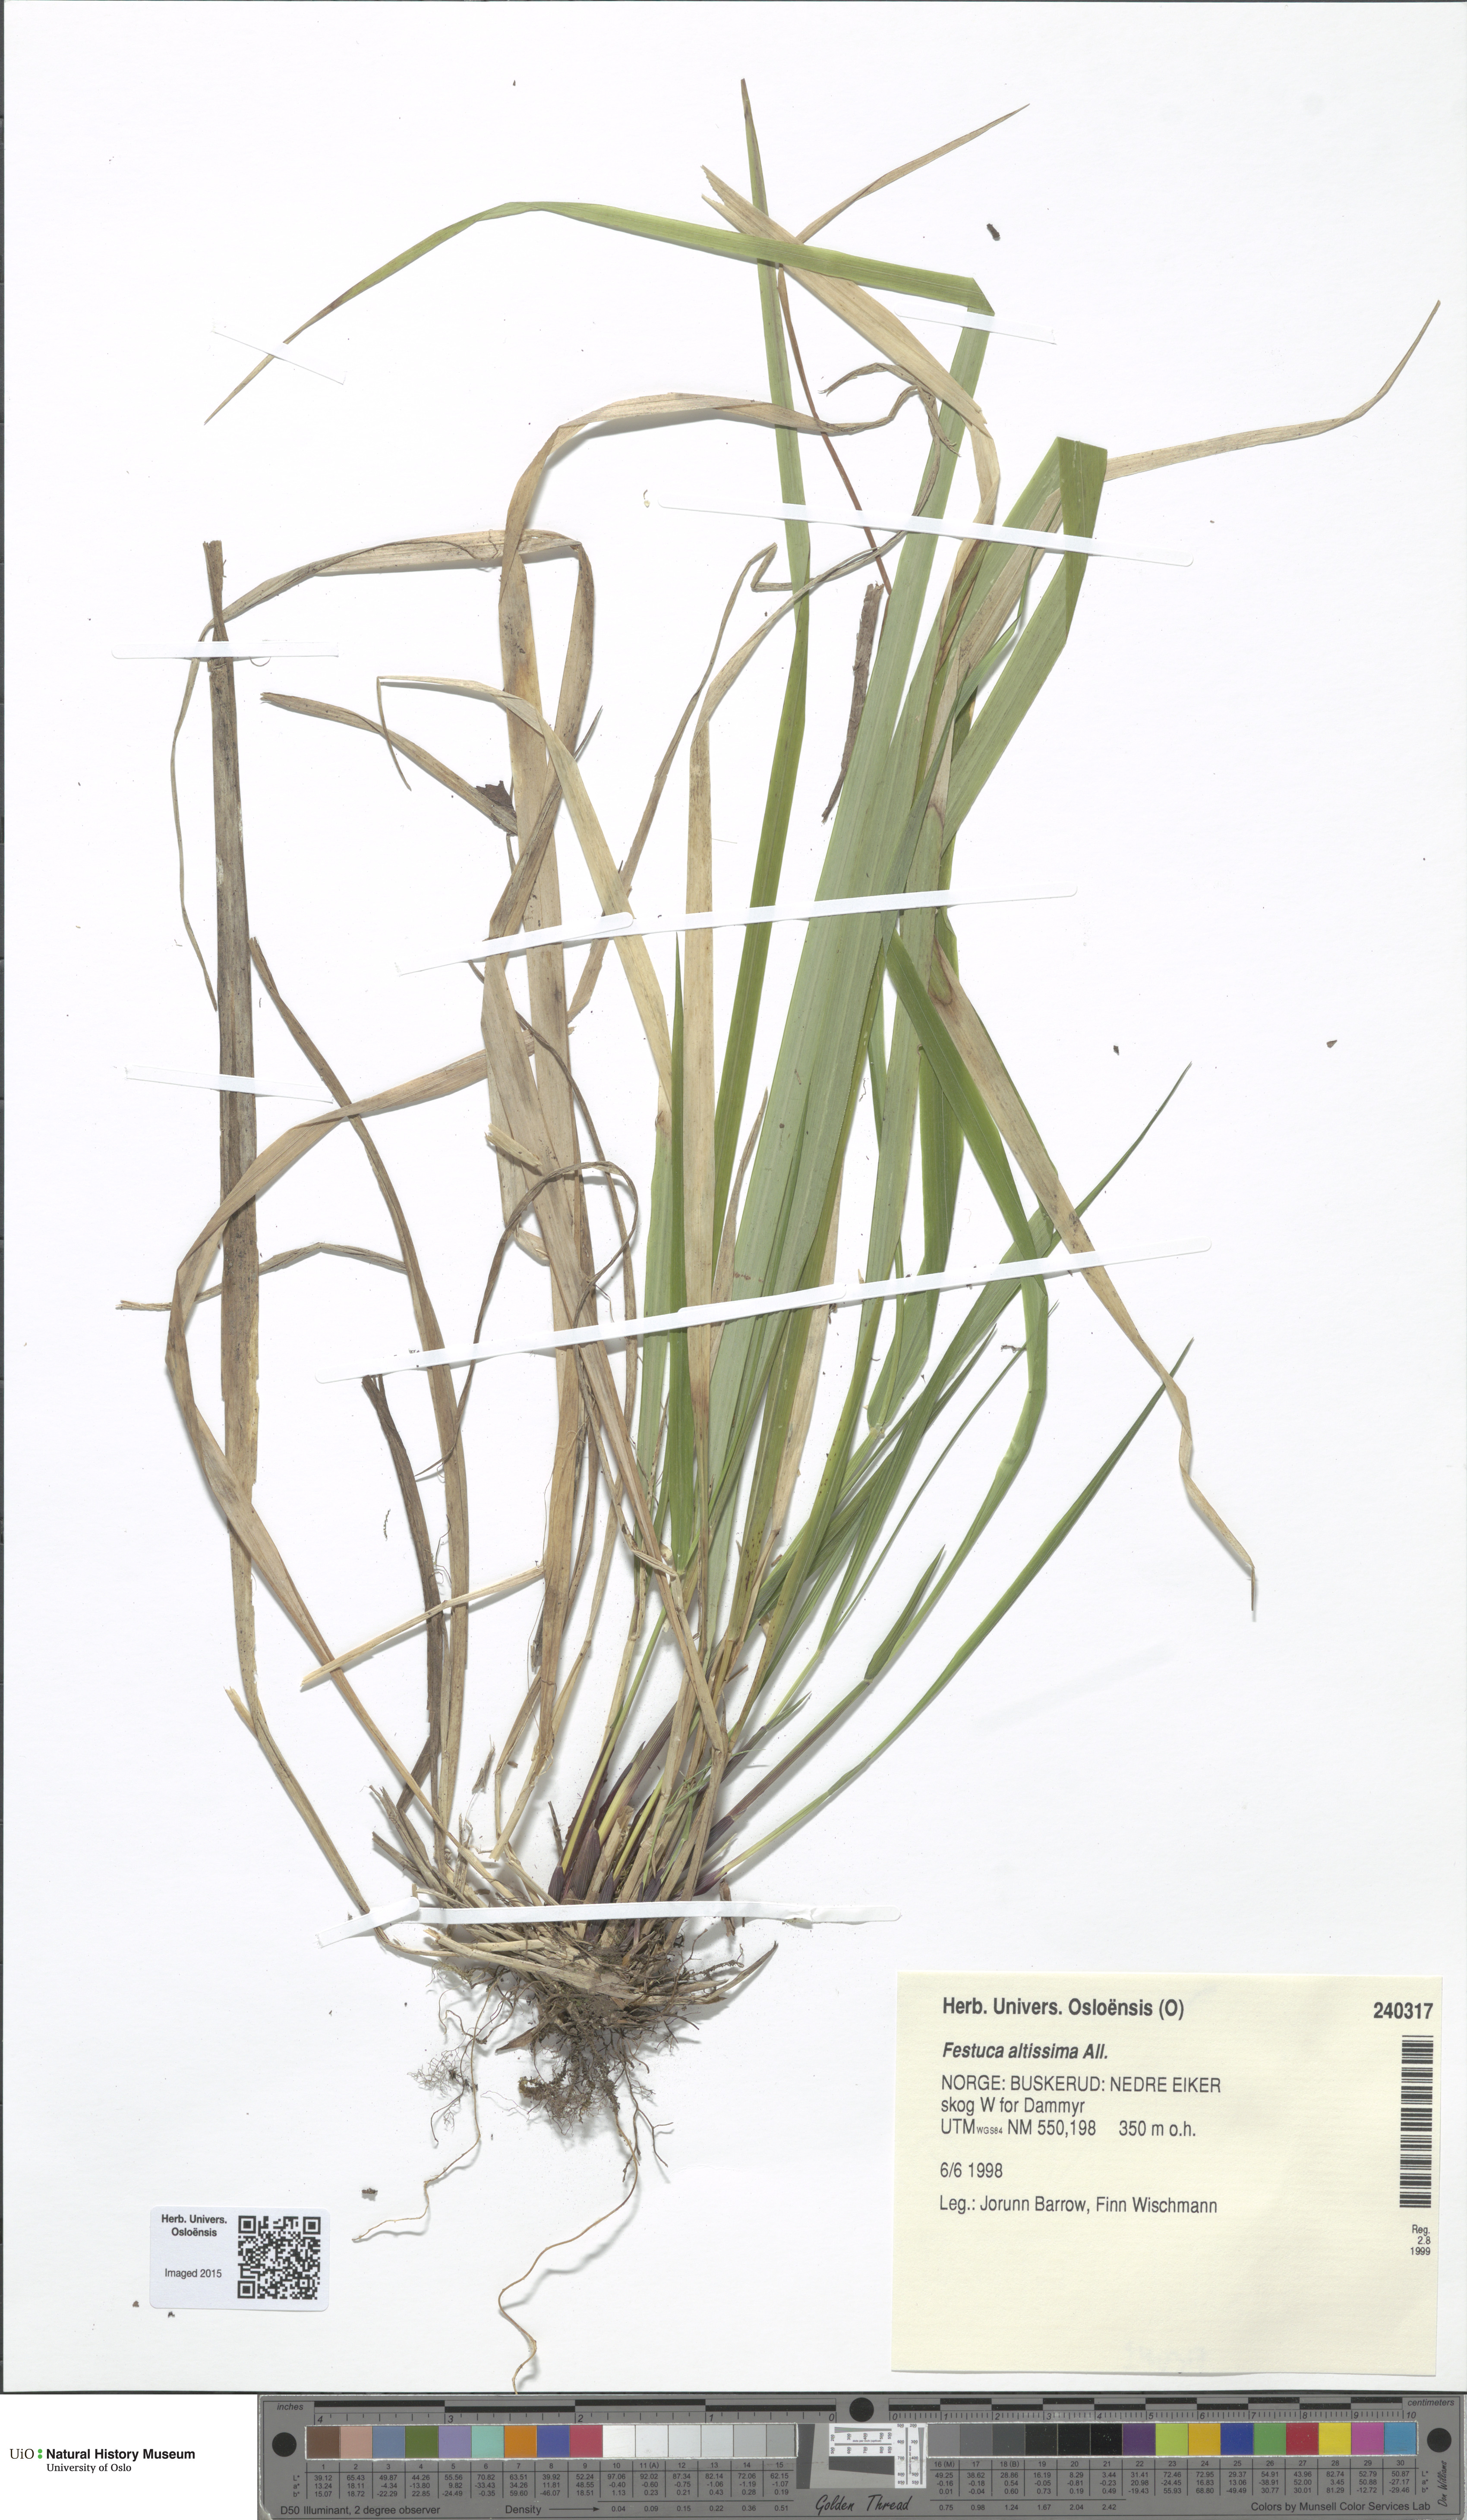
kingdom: Plantae
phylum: Tracheophyta
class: Liliopsida
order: Poales
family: Poaceae
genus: Festuca
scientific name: Festuca altissima
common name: Wood fescue
